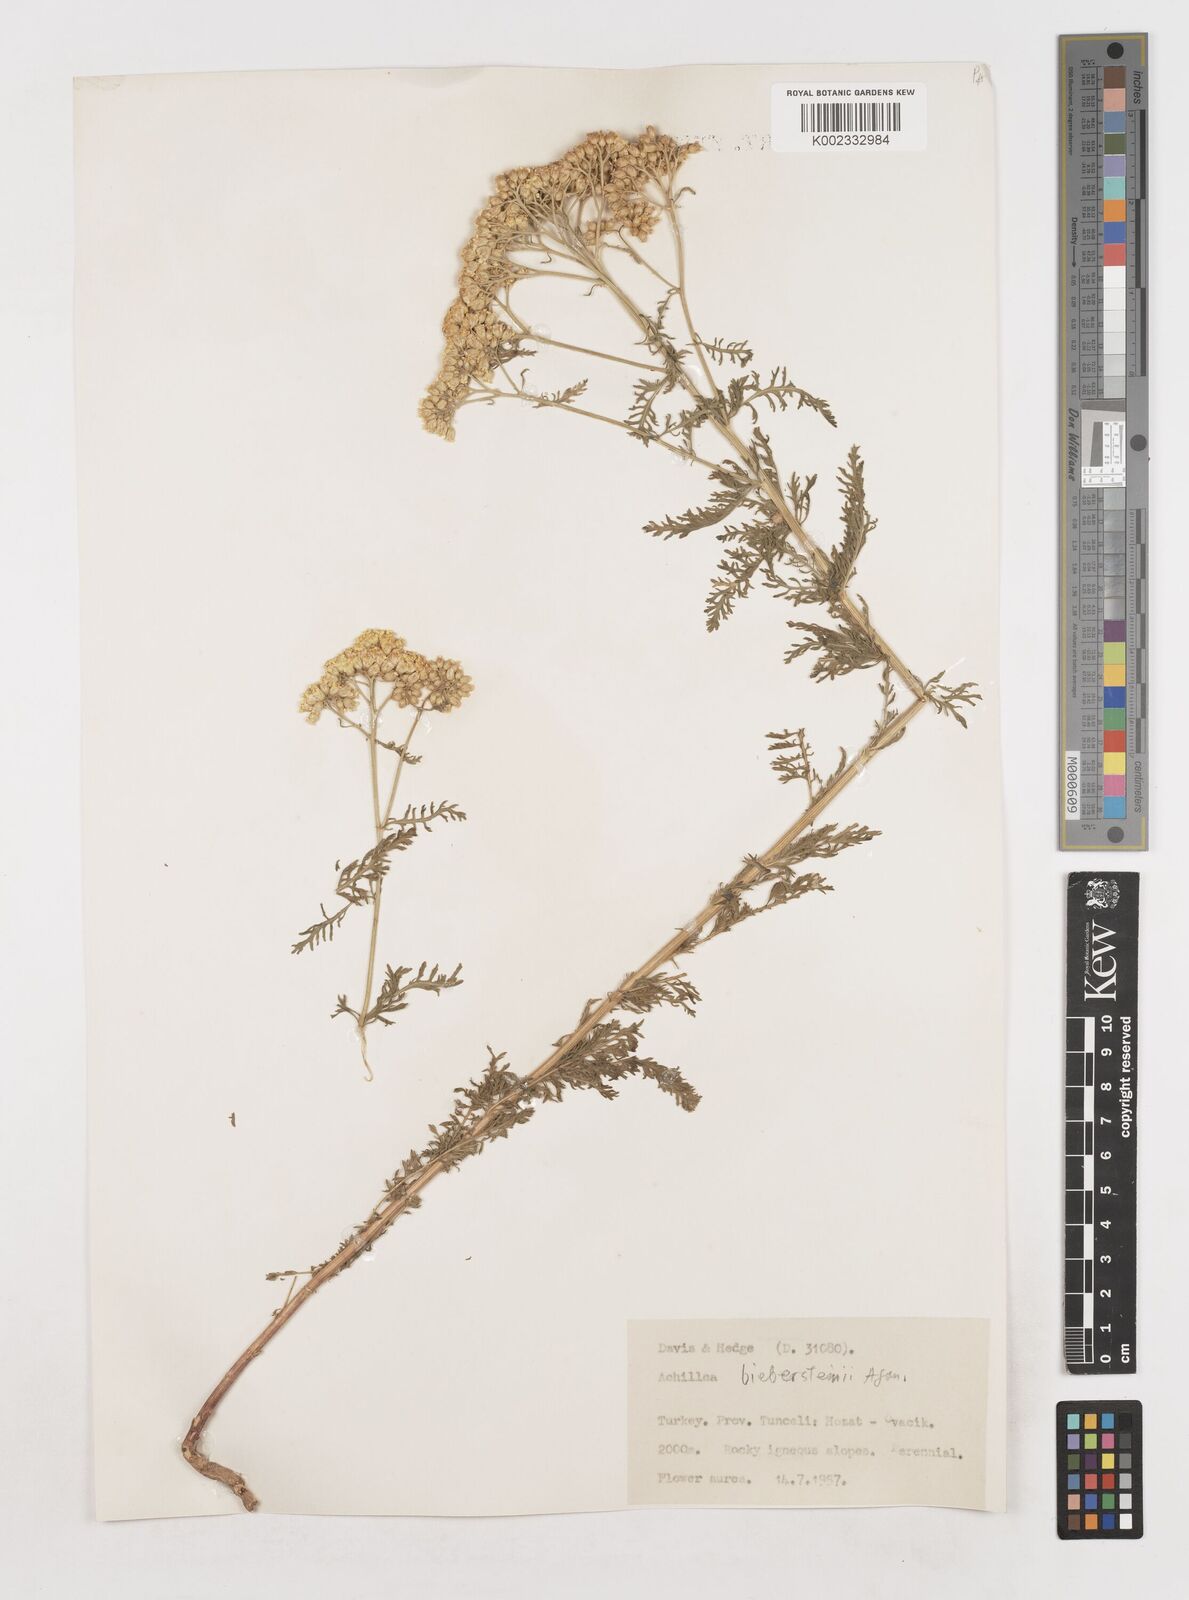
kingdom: Plantae
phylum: Tracheophyta
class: Magnoliopsida
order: Asterales
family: Asteraceae
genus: Achillea
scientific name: Achillea arabica
